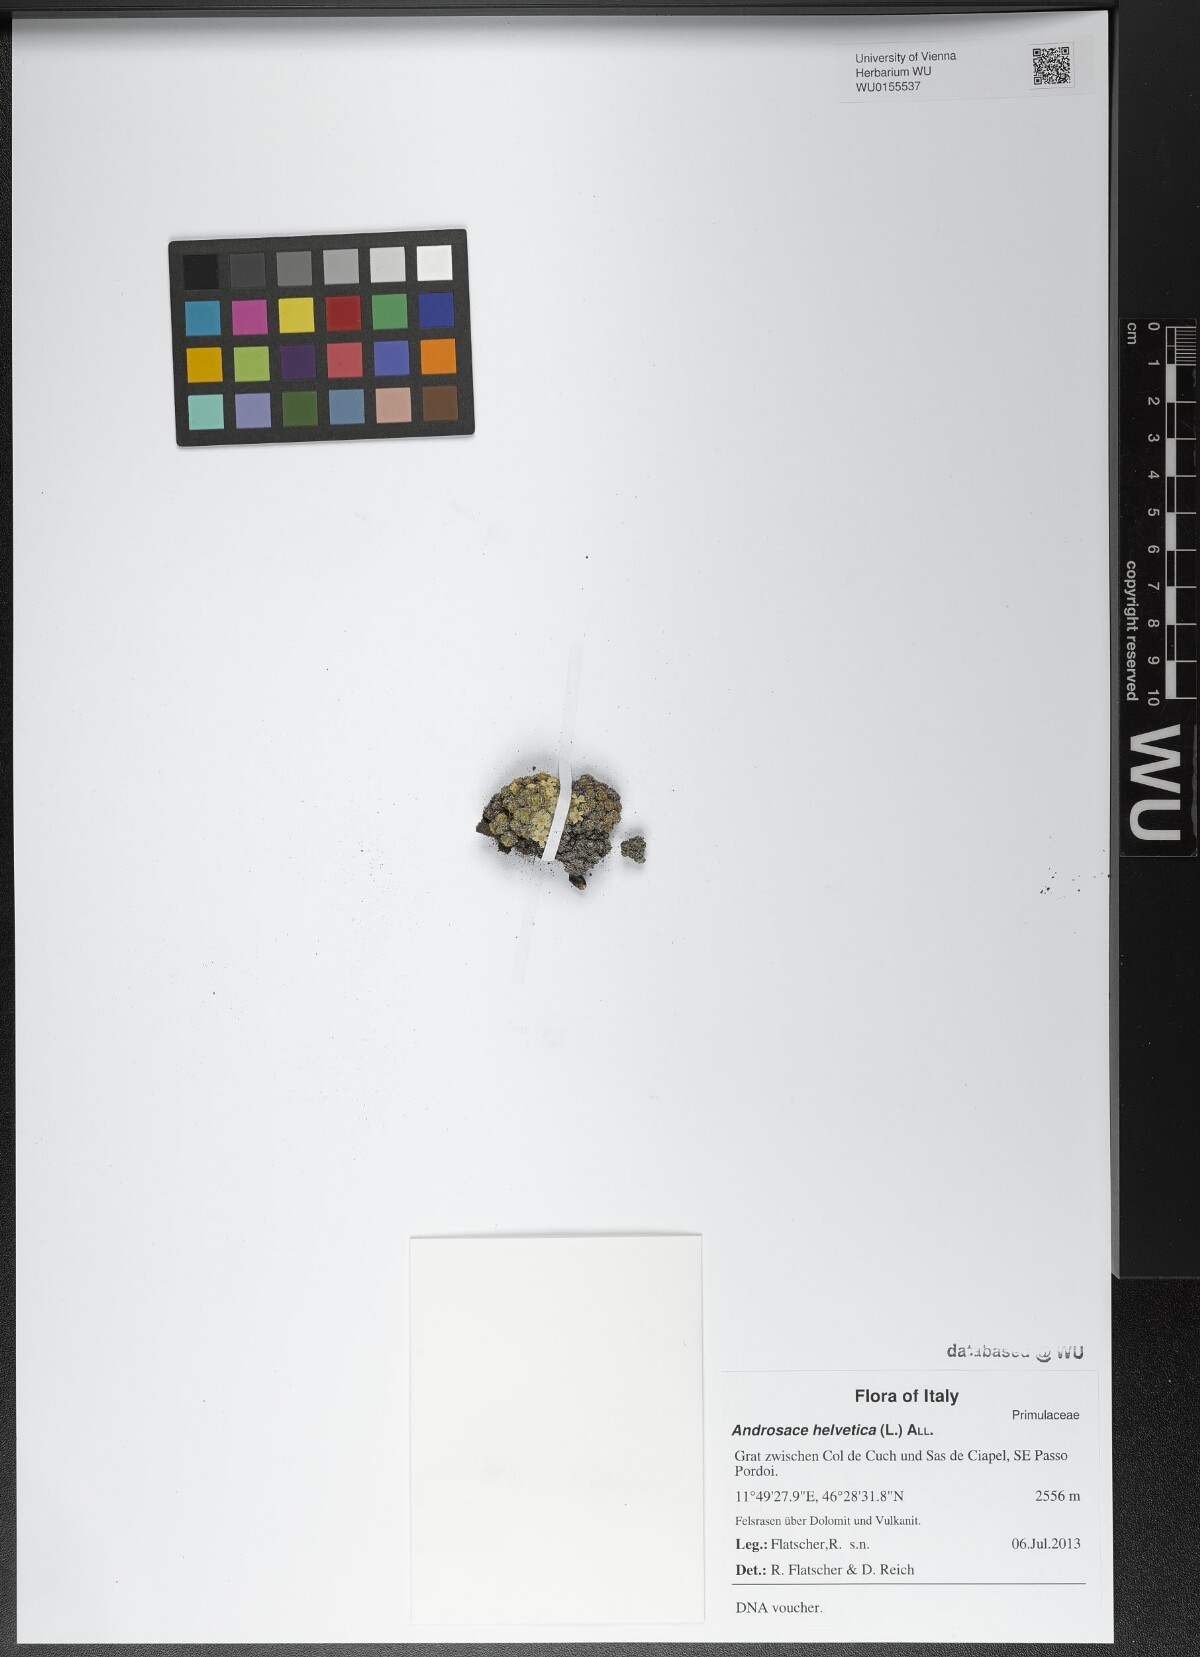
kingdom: Plantae
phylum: Tracheophyta
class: Magnoliopsida
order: Ericales
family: Primulaceae
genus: Androsace
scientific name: Androsace helvetica
